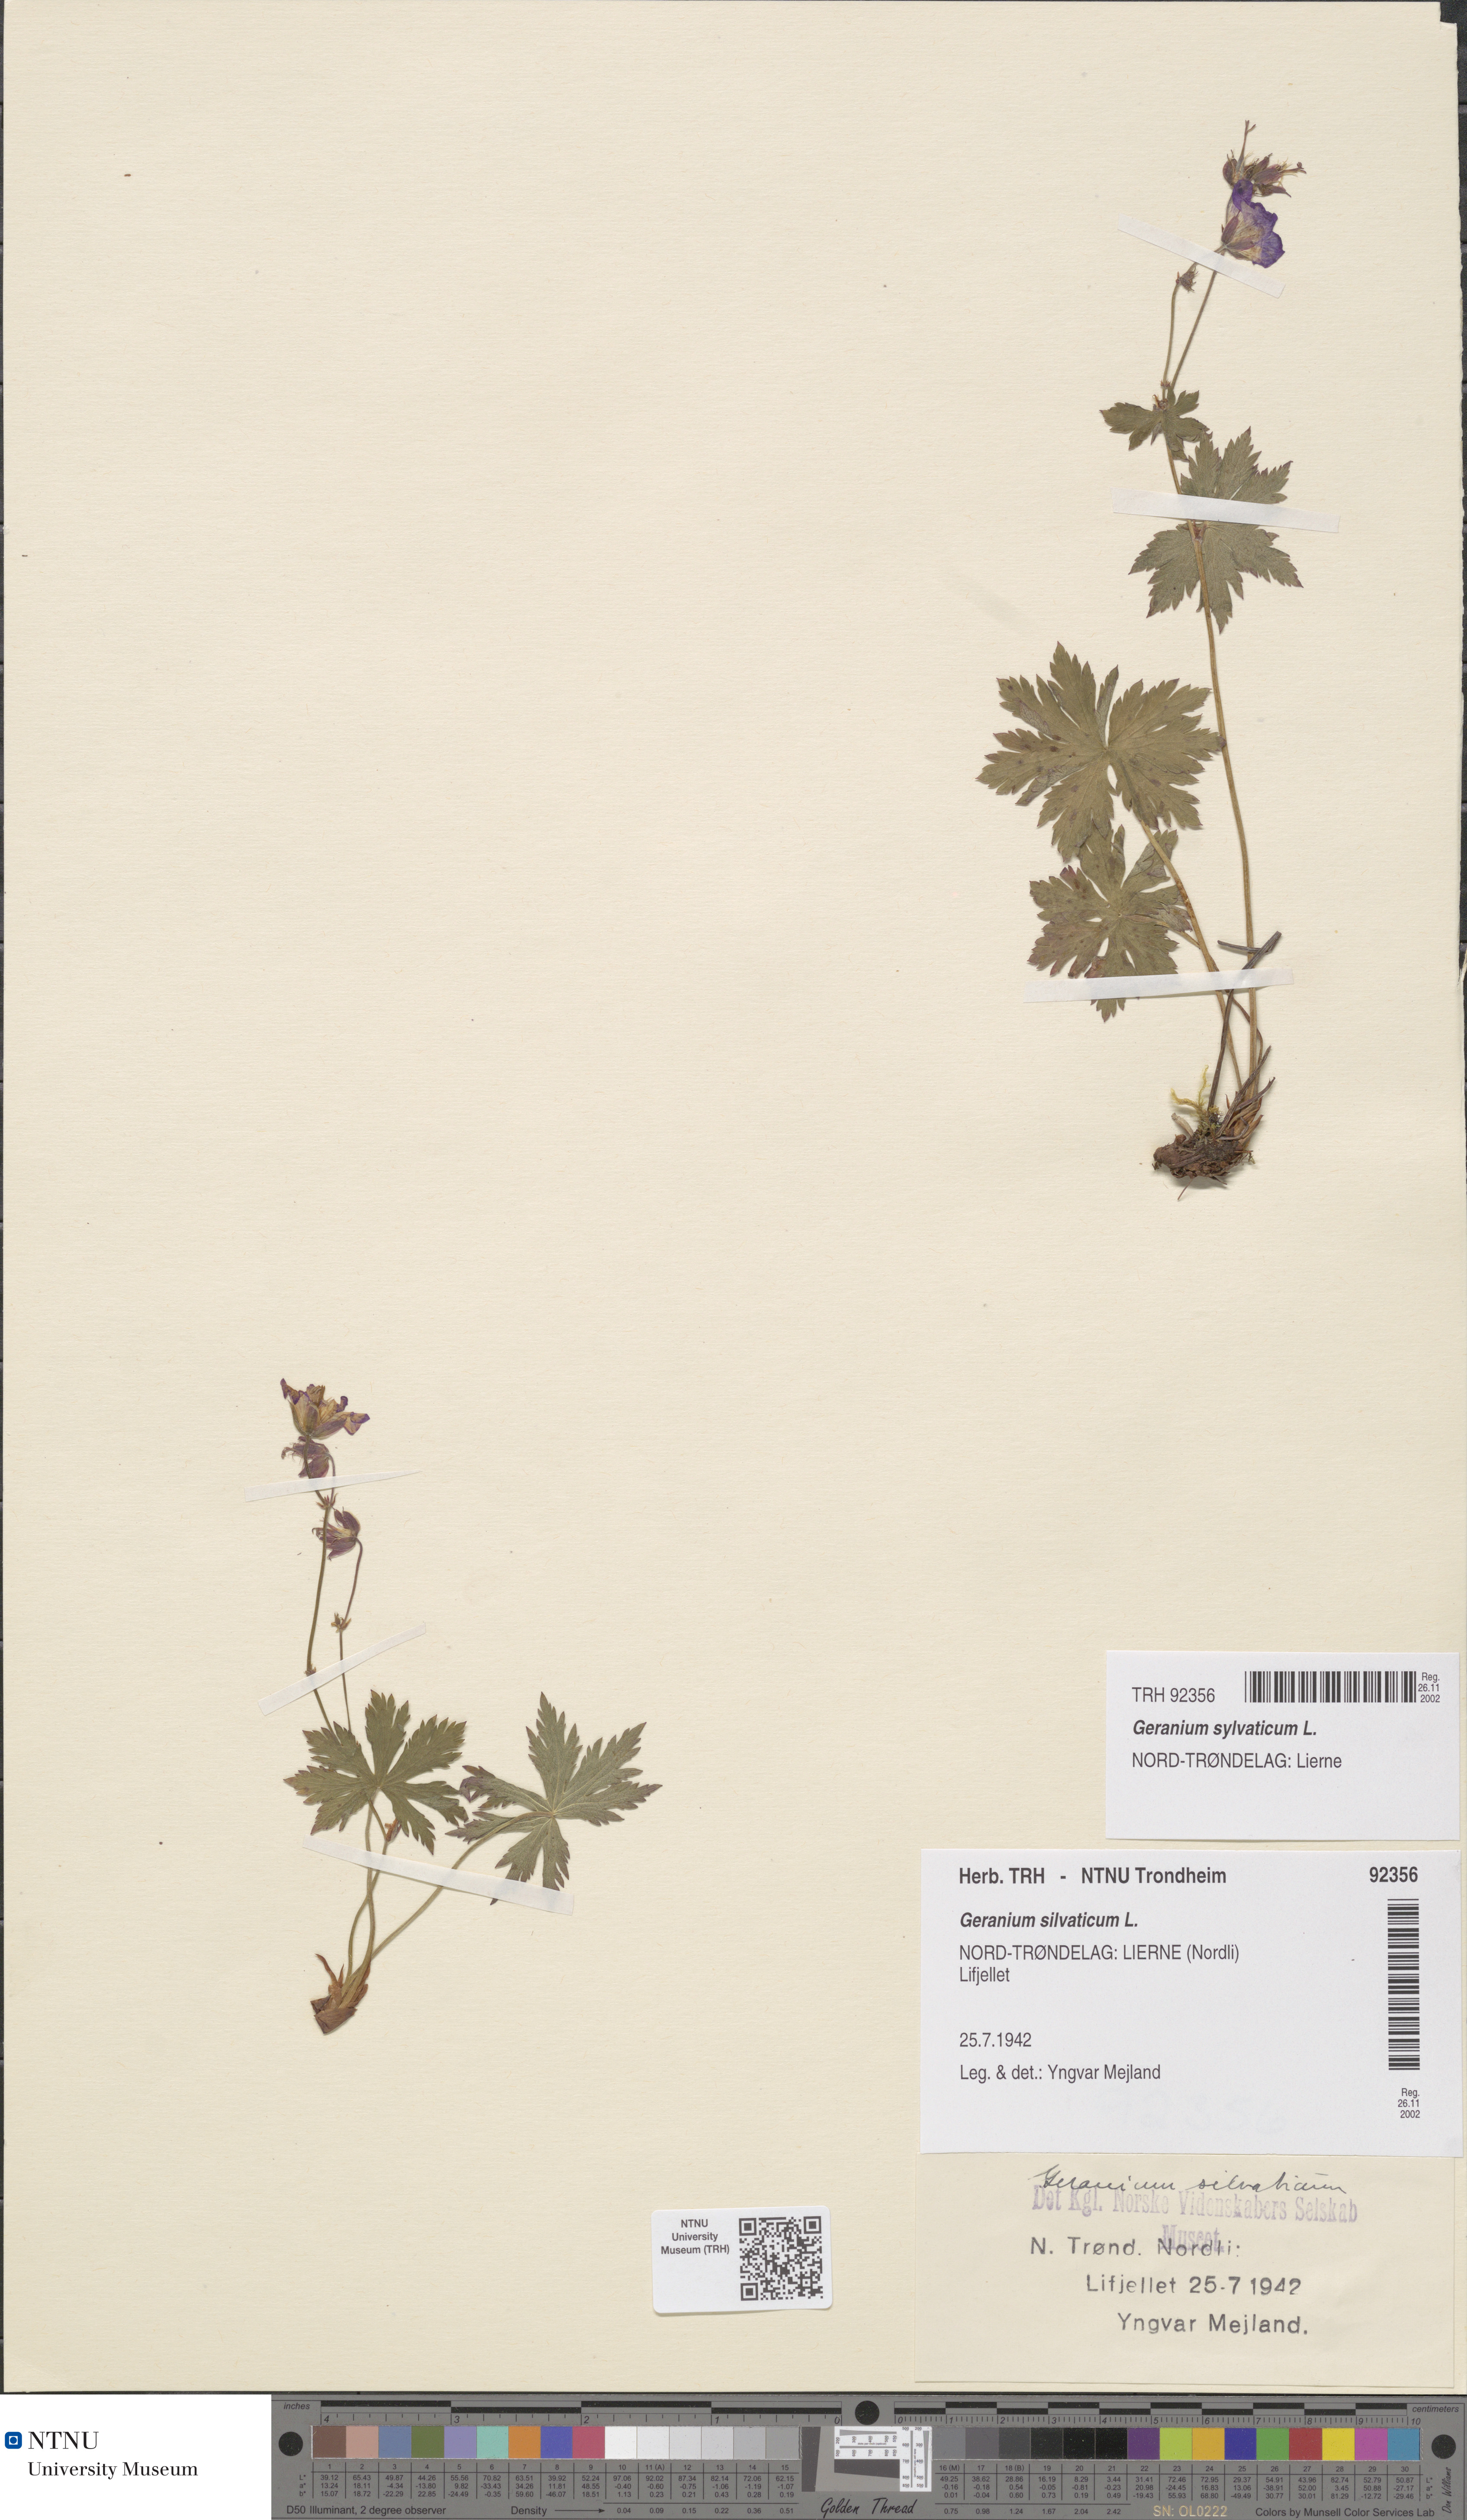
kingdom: Plantae
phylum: Tracheophyta
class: Magnoliopsida
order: Geraniales
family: Geraniaceae
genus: Geranium
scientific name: Geranium sylvaticum
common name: Wood crane's-bill
